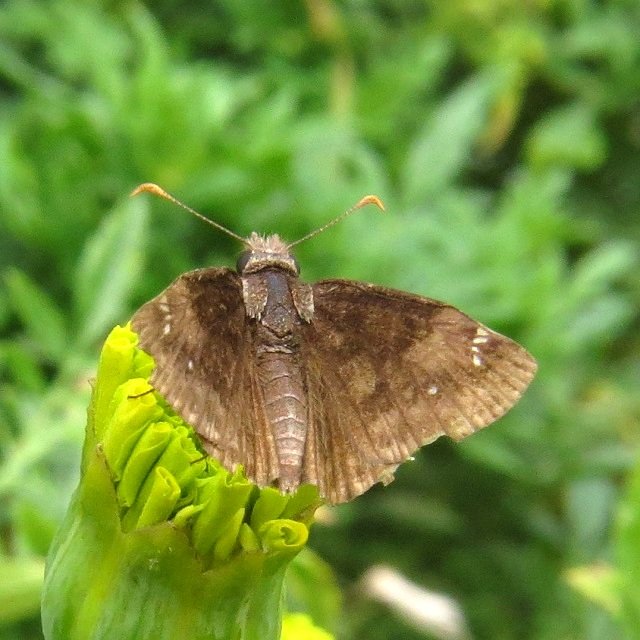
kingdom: Animalia
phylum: Arthropoda
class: Insecta
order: Lepidoptera
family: Hesperiidae
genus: Gesta
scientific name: Gesta
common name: Wild Indigo Duskywing
